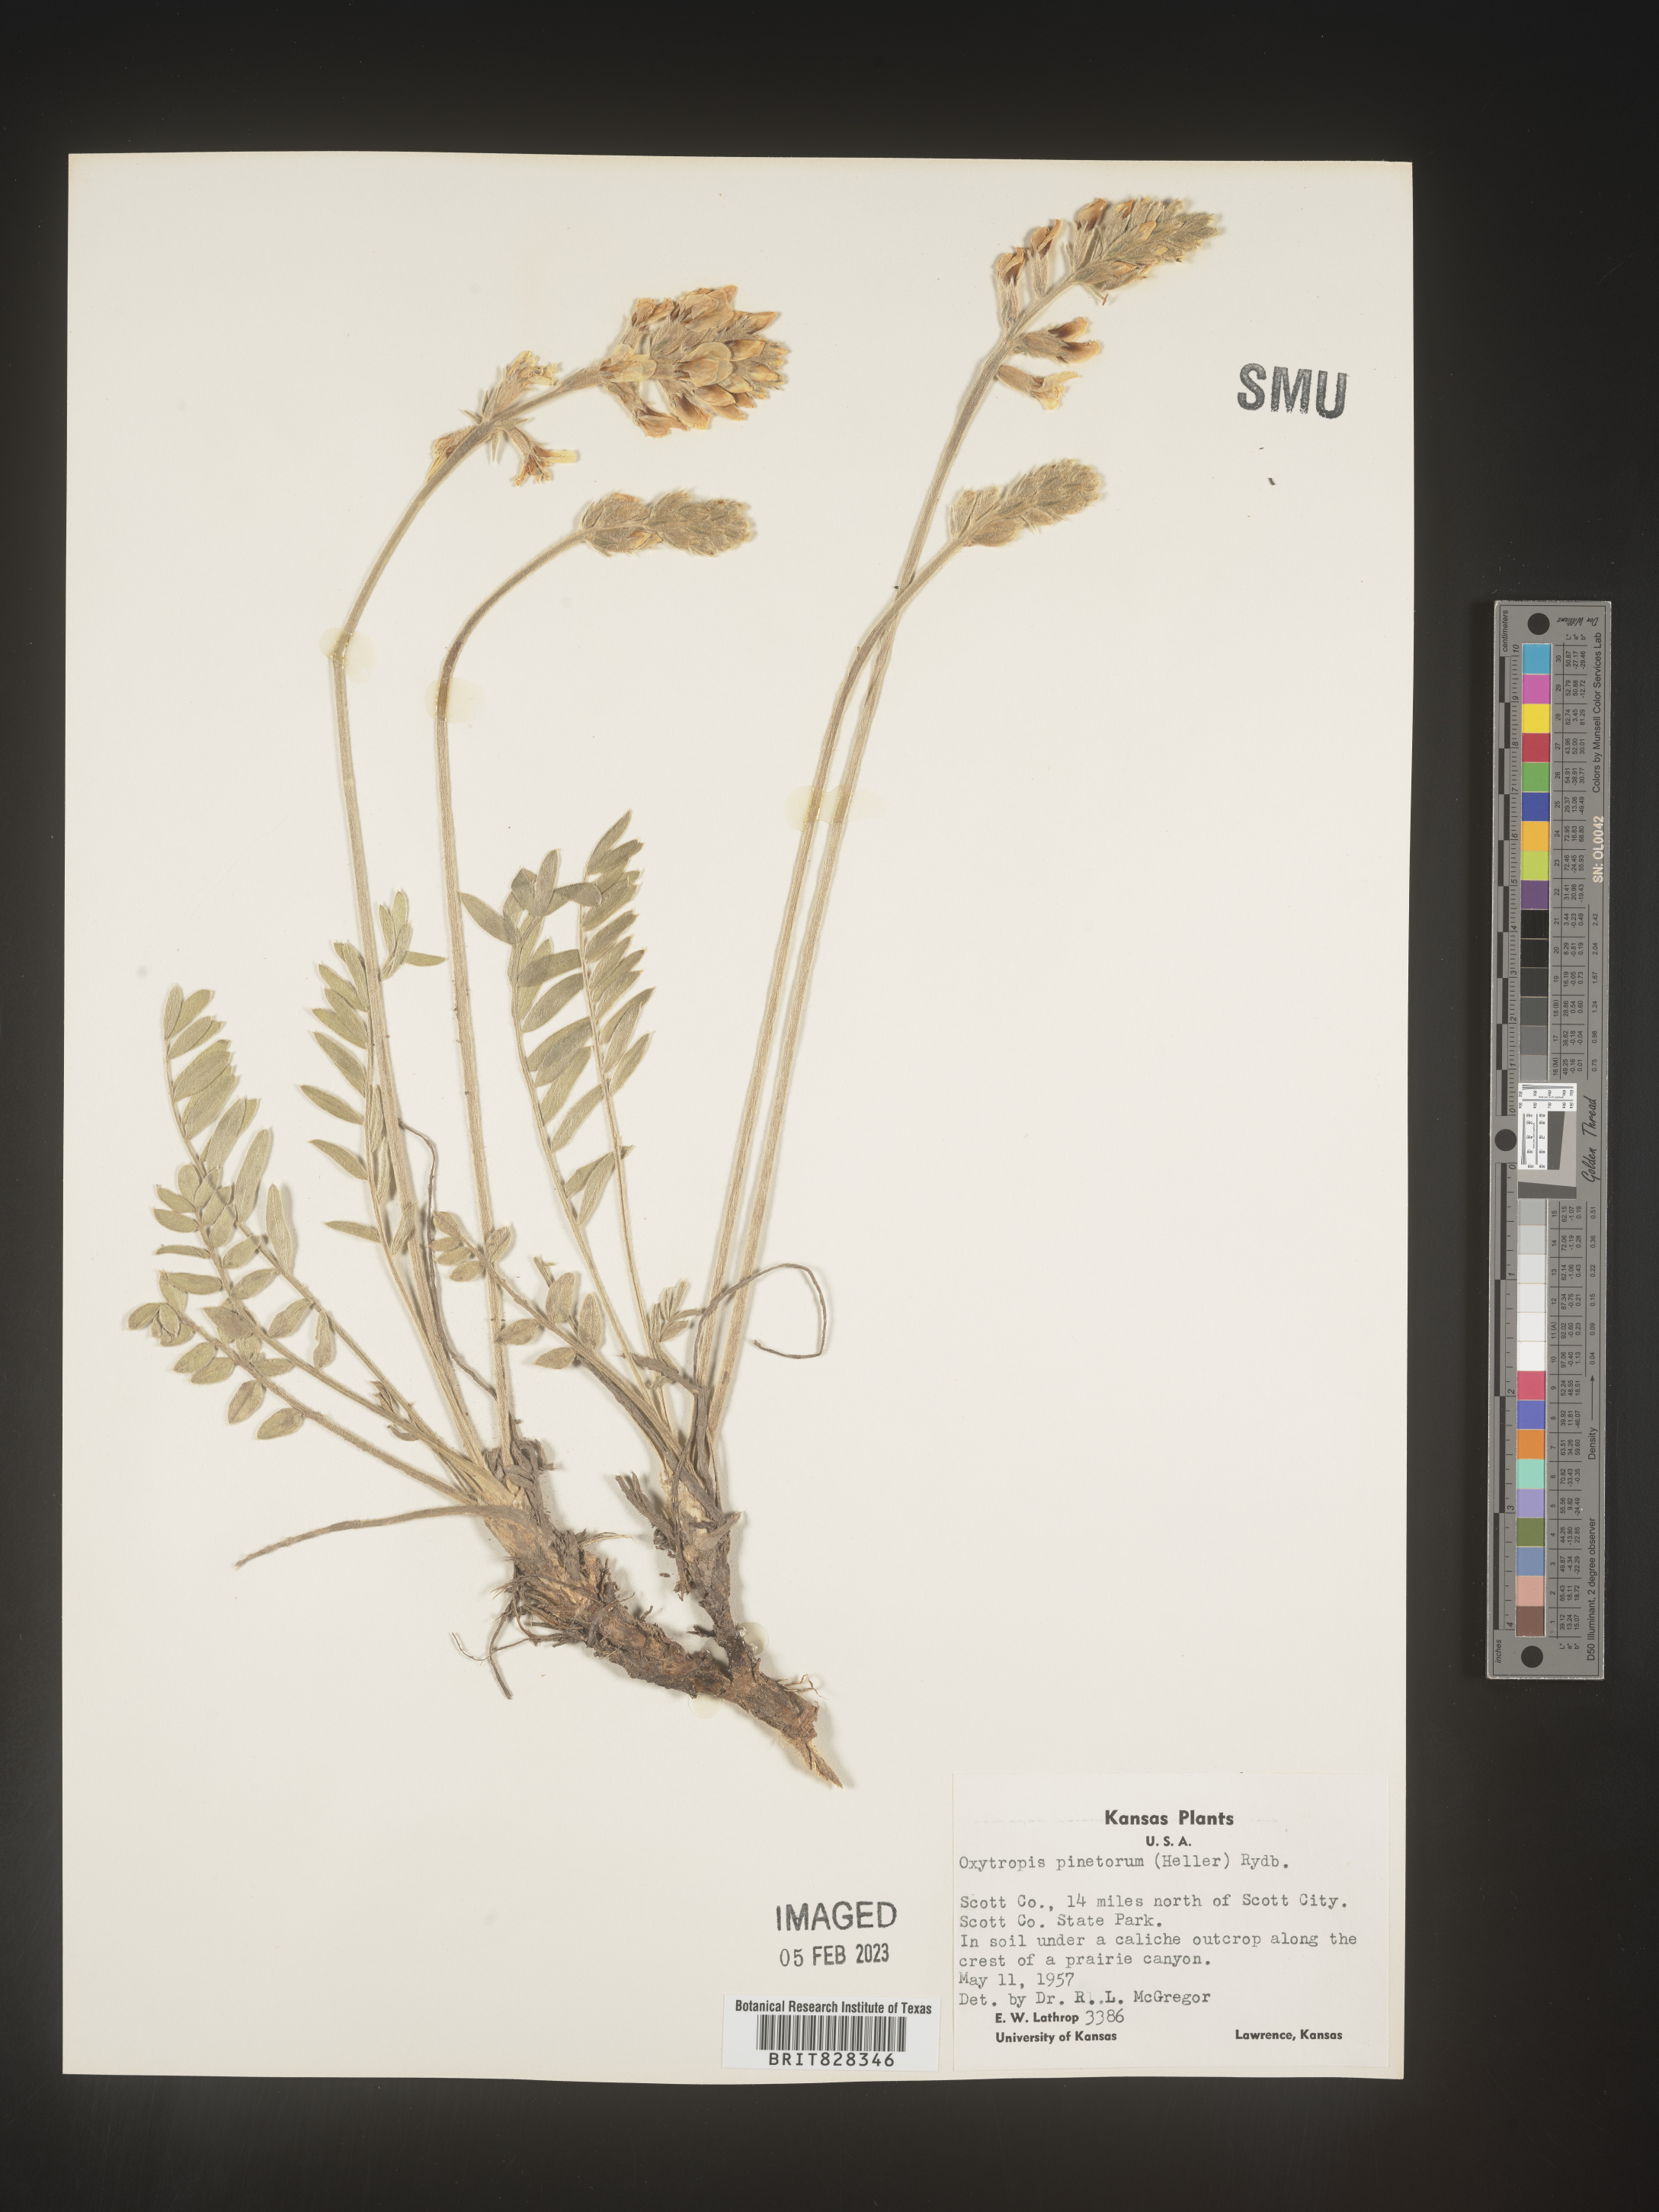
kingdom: Plantae
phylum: Tracheophyta
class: Magnoliopsida
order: Fabales
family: Fabaceae
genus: Oxytropis
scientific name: Oxytropis
